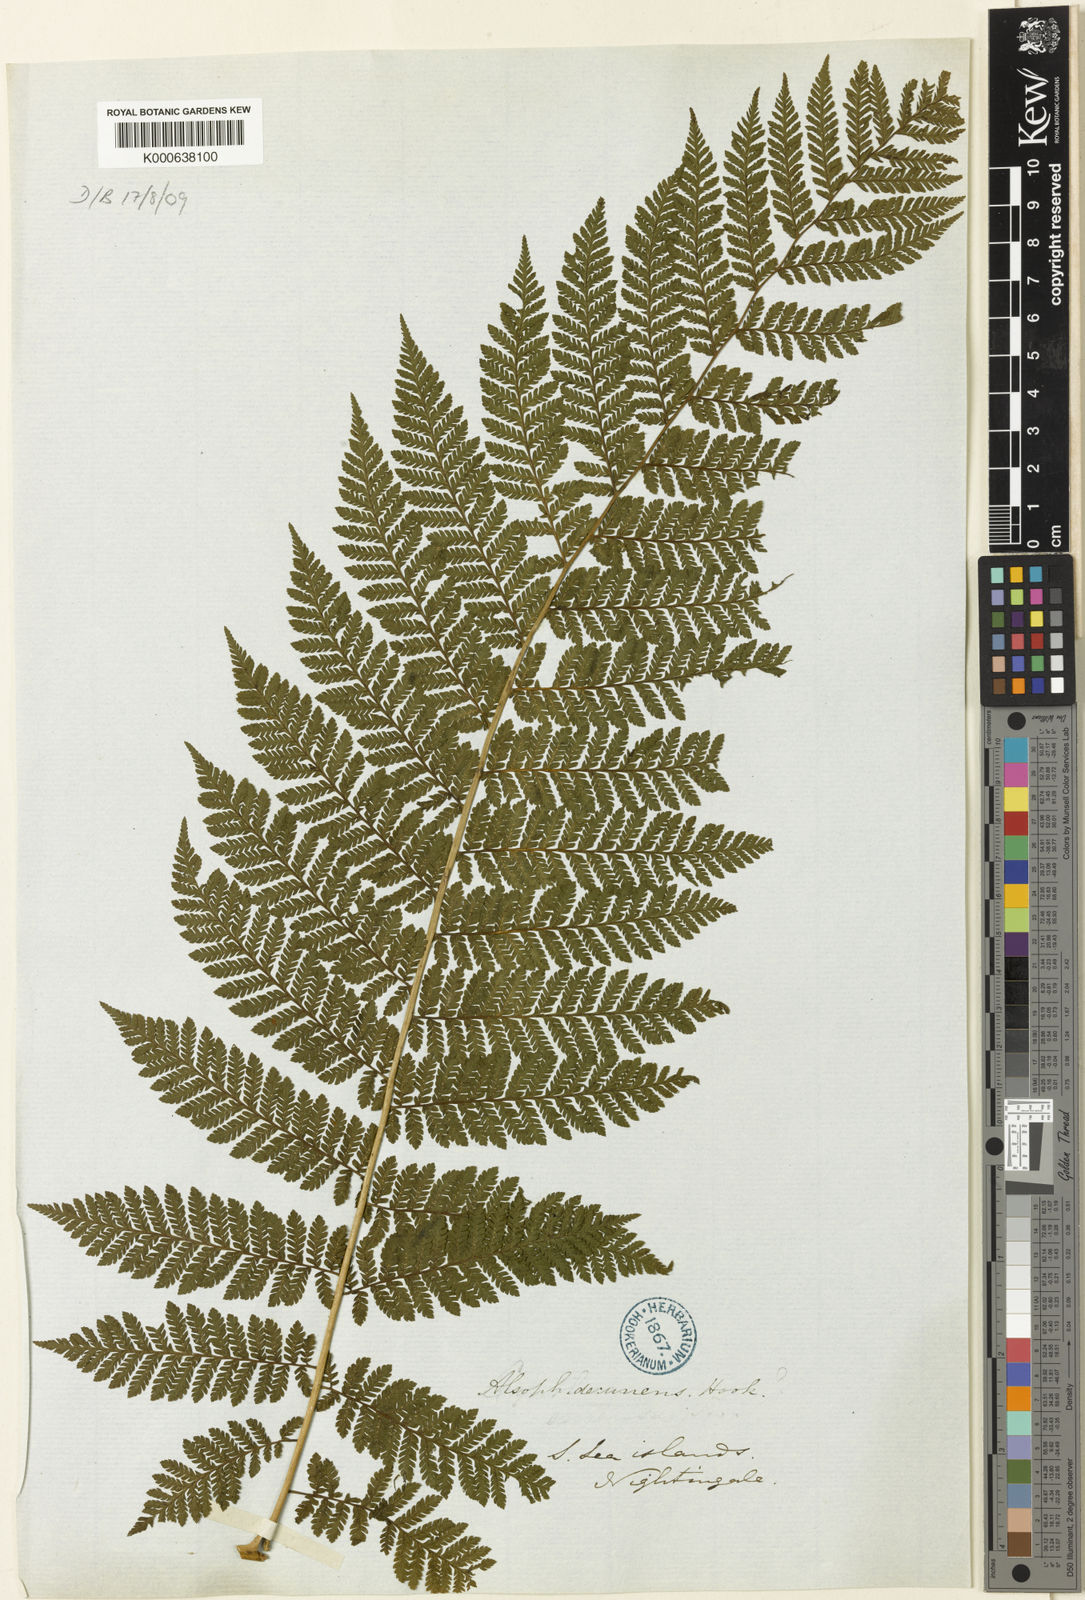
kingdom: Plantae
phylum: Tracheophyta
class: Polypodiopsida
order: Cyatheales
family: Cyatheaceae
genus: Cyathea
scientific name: Cyathea liebmannii
